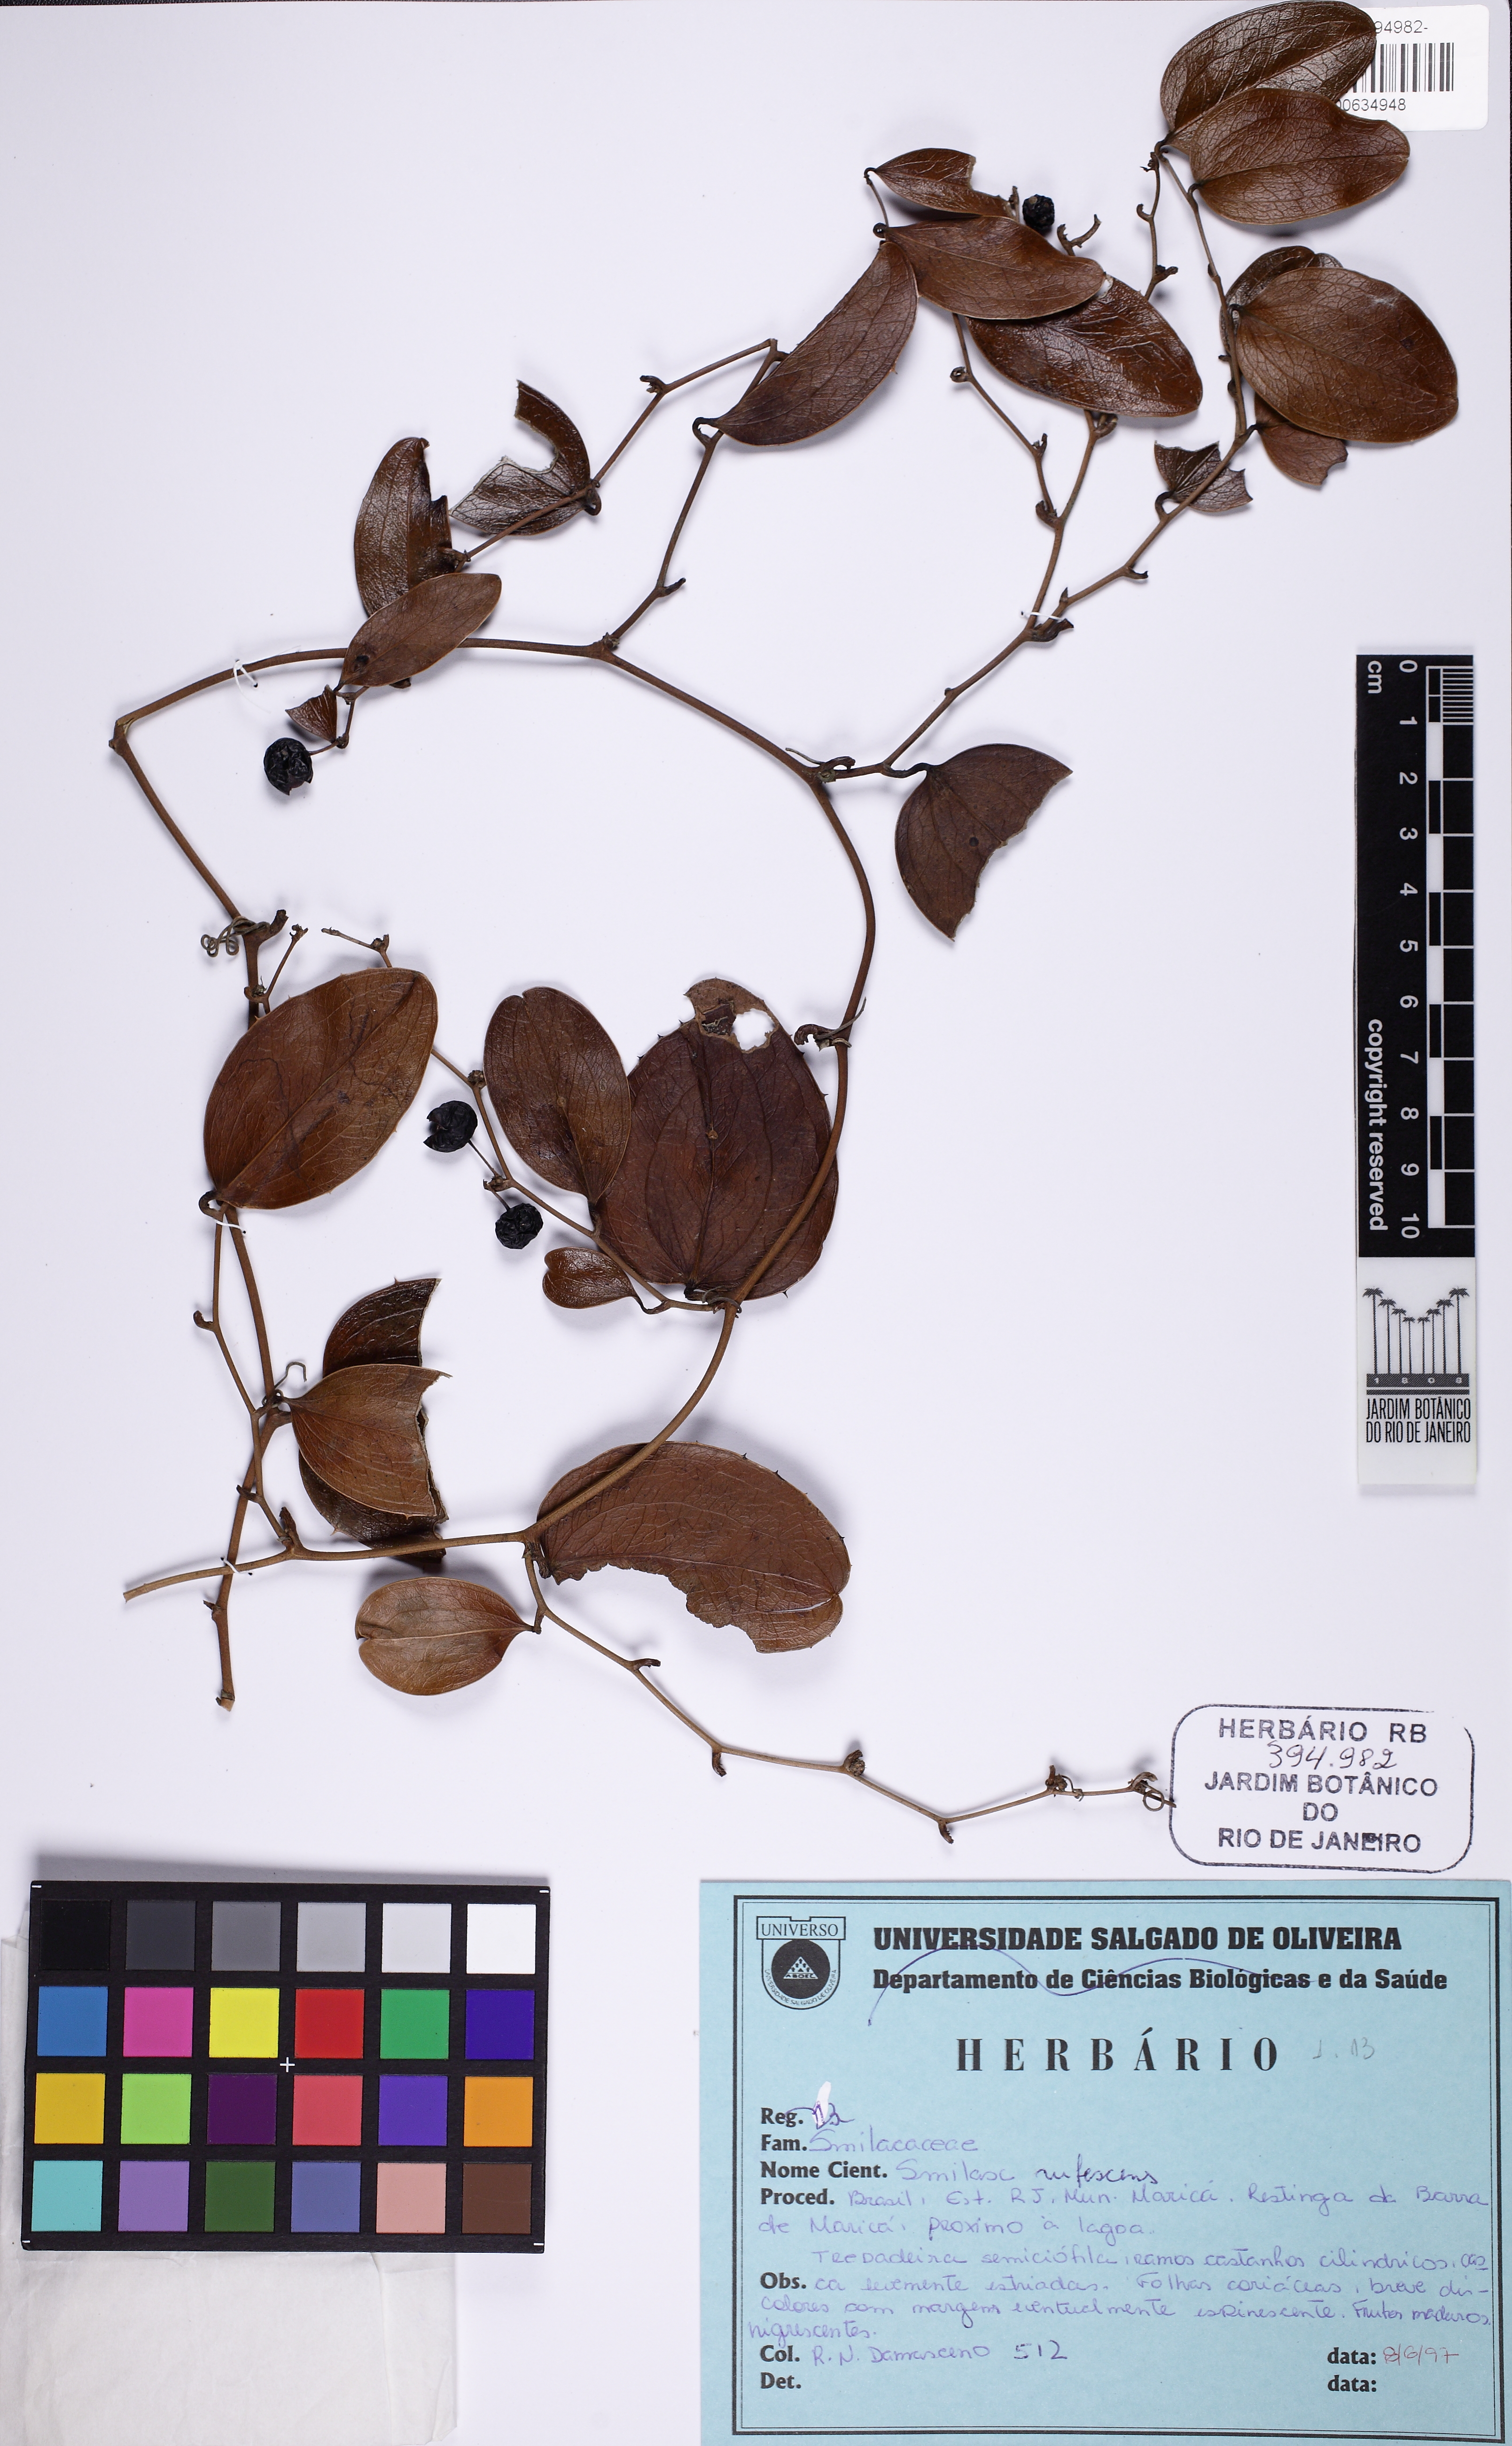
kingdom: Plantae
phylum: Tracheophyta
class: Liliopsida
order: Liliales
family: Smilacaceae
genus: Smilax
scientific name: Smilax rufescens
